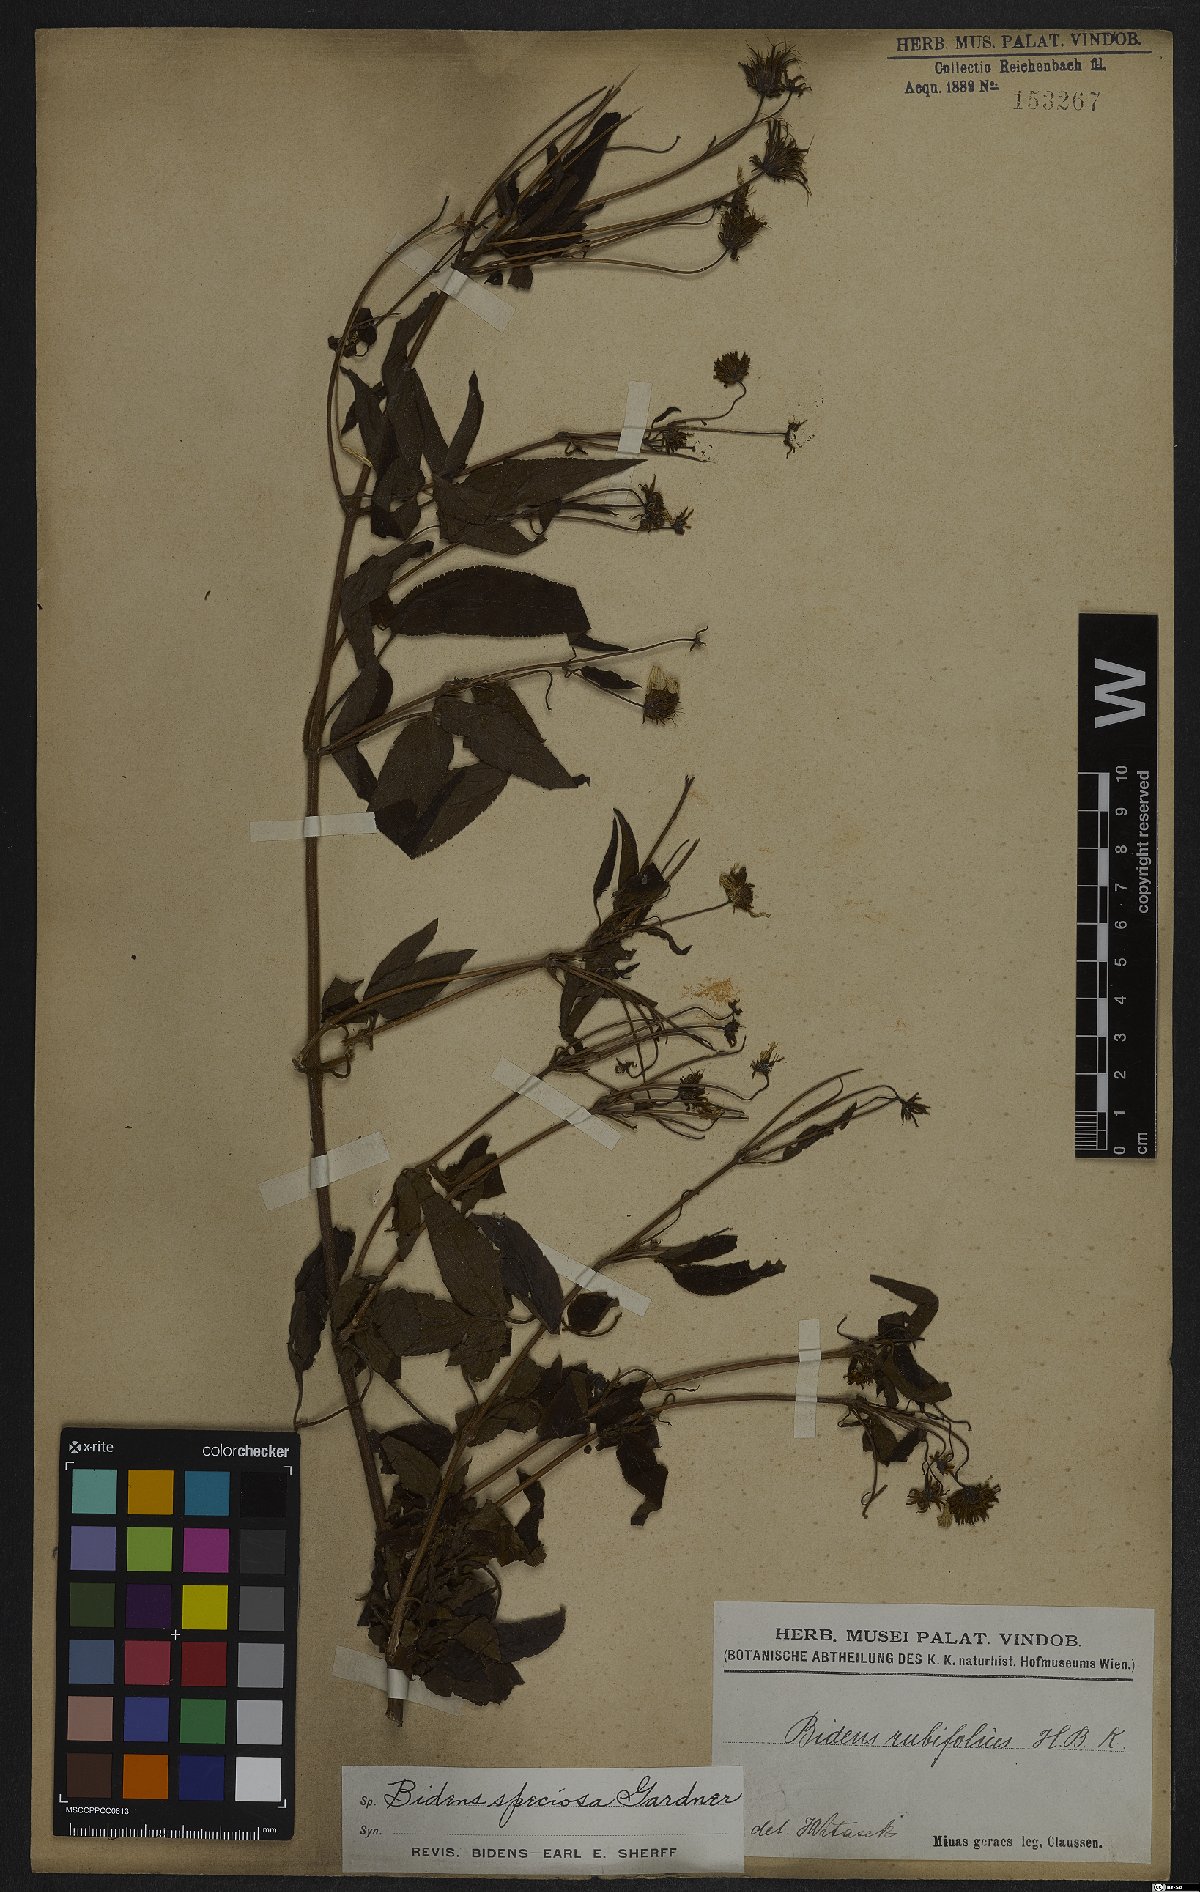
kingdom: Plantae
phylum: Tracheophyta
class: Magnoliopsida
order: Asterales
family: Asteraceae
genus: Bidens
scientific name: Bidens segetum
